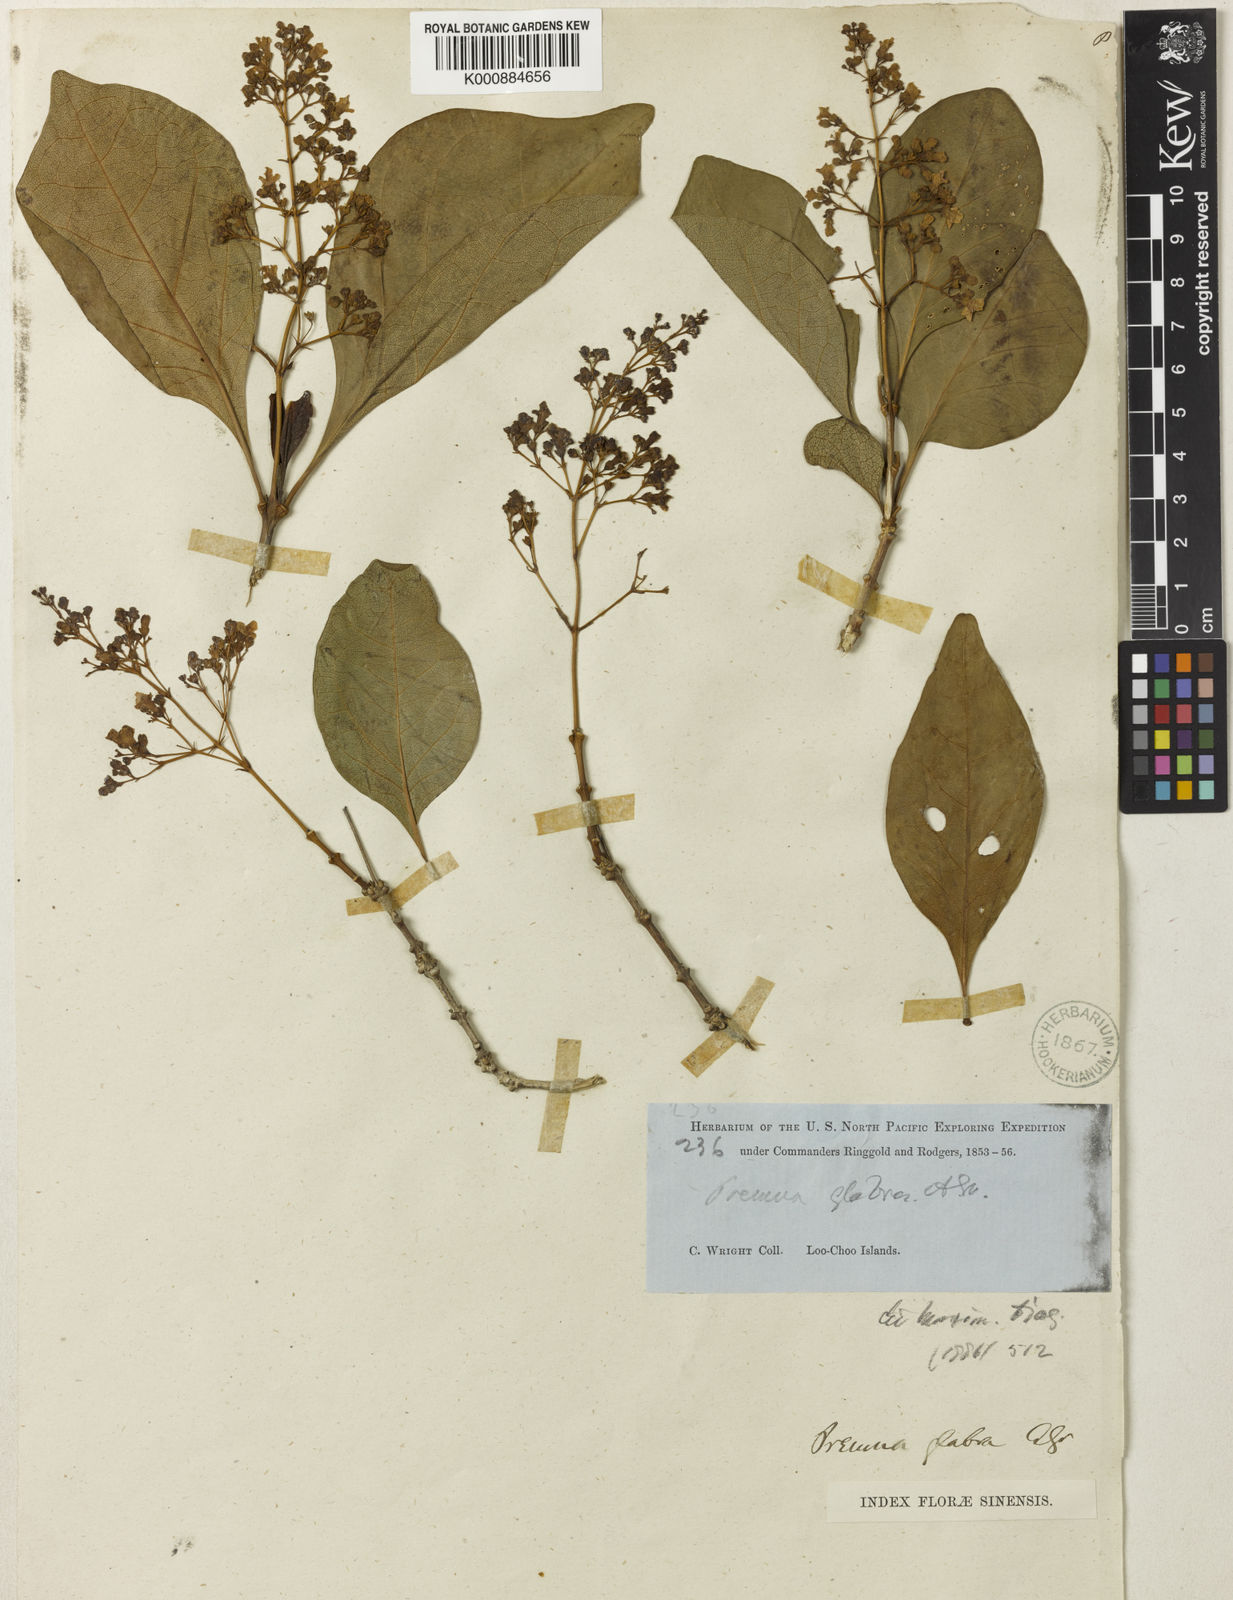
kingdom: Plantae
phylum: Tracheophyta
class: Magnoliopsida
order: Lamiales
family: Lamiaceae
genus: Premna
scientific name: Premna serratifolia
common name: Bastard guelder
